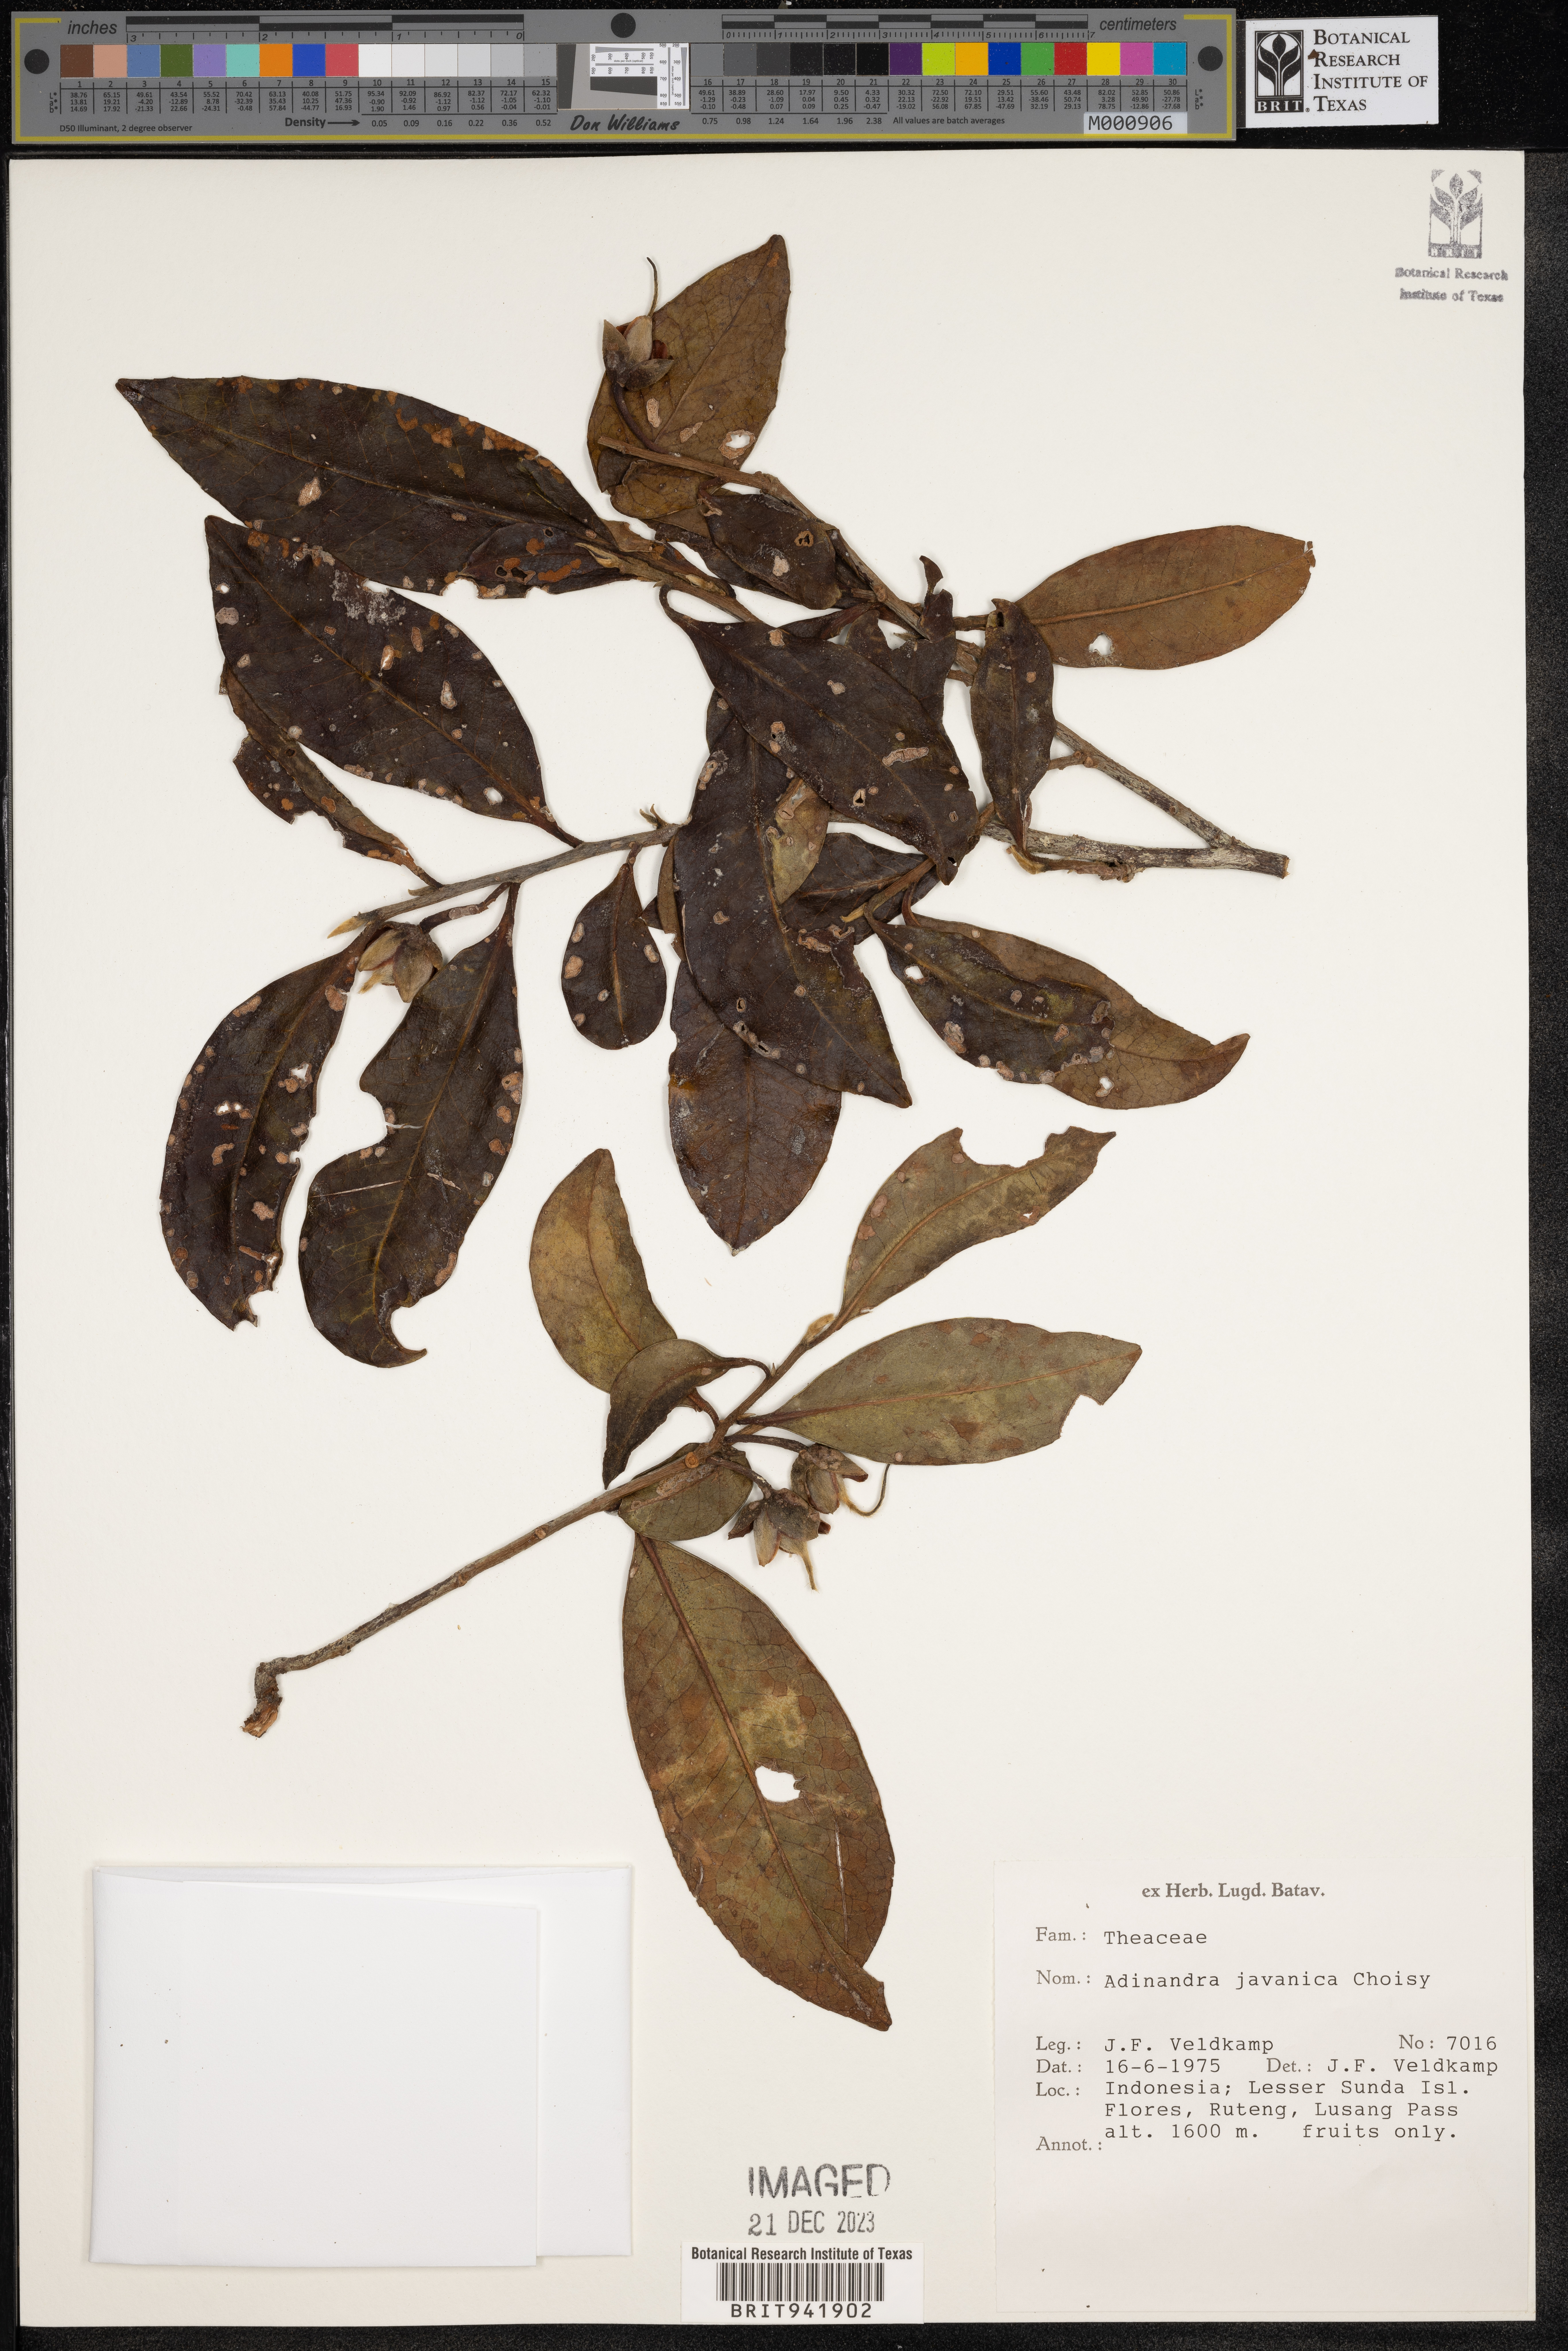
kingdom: Plantae
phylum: Tracheophyta
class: Magnoliopsida
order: Ericales
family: Pentaphylacaceae
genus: Adinandra
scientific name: Adinandra
